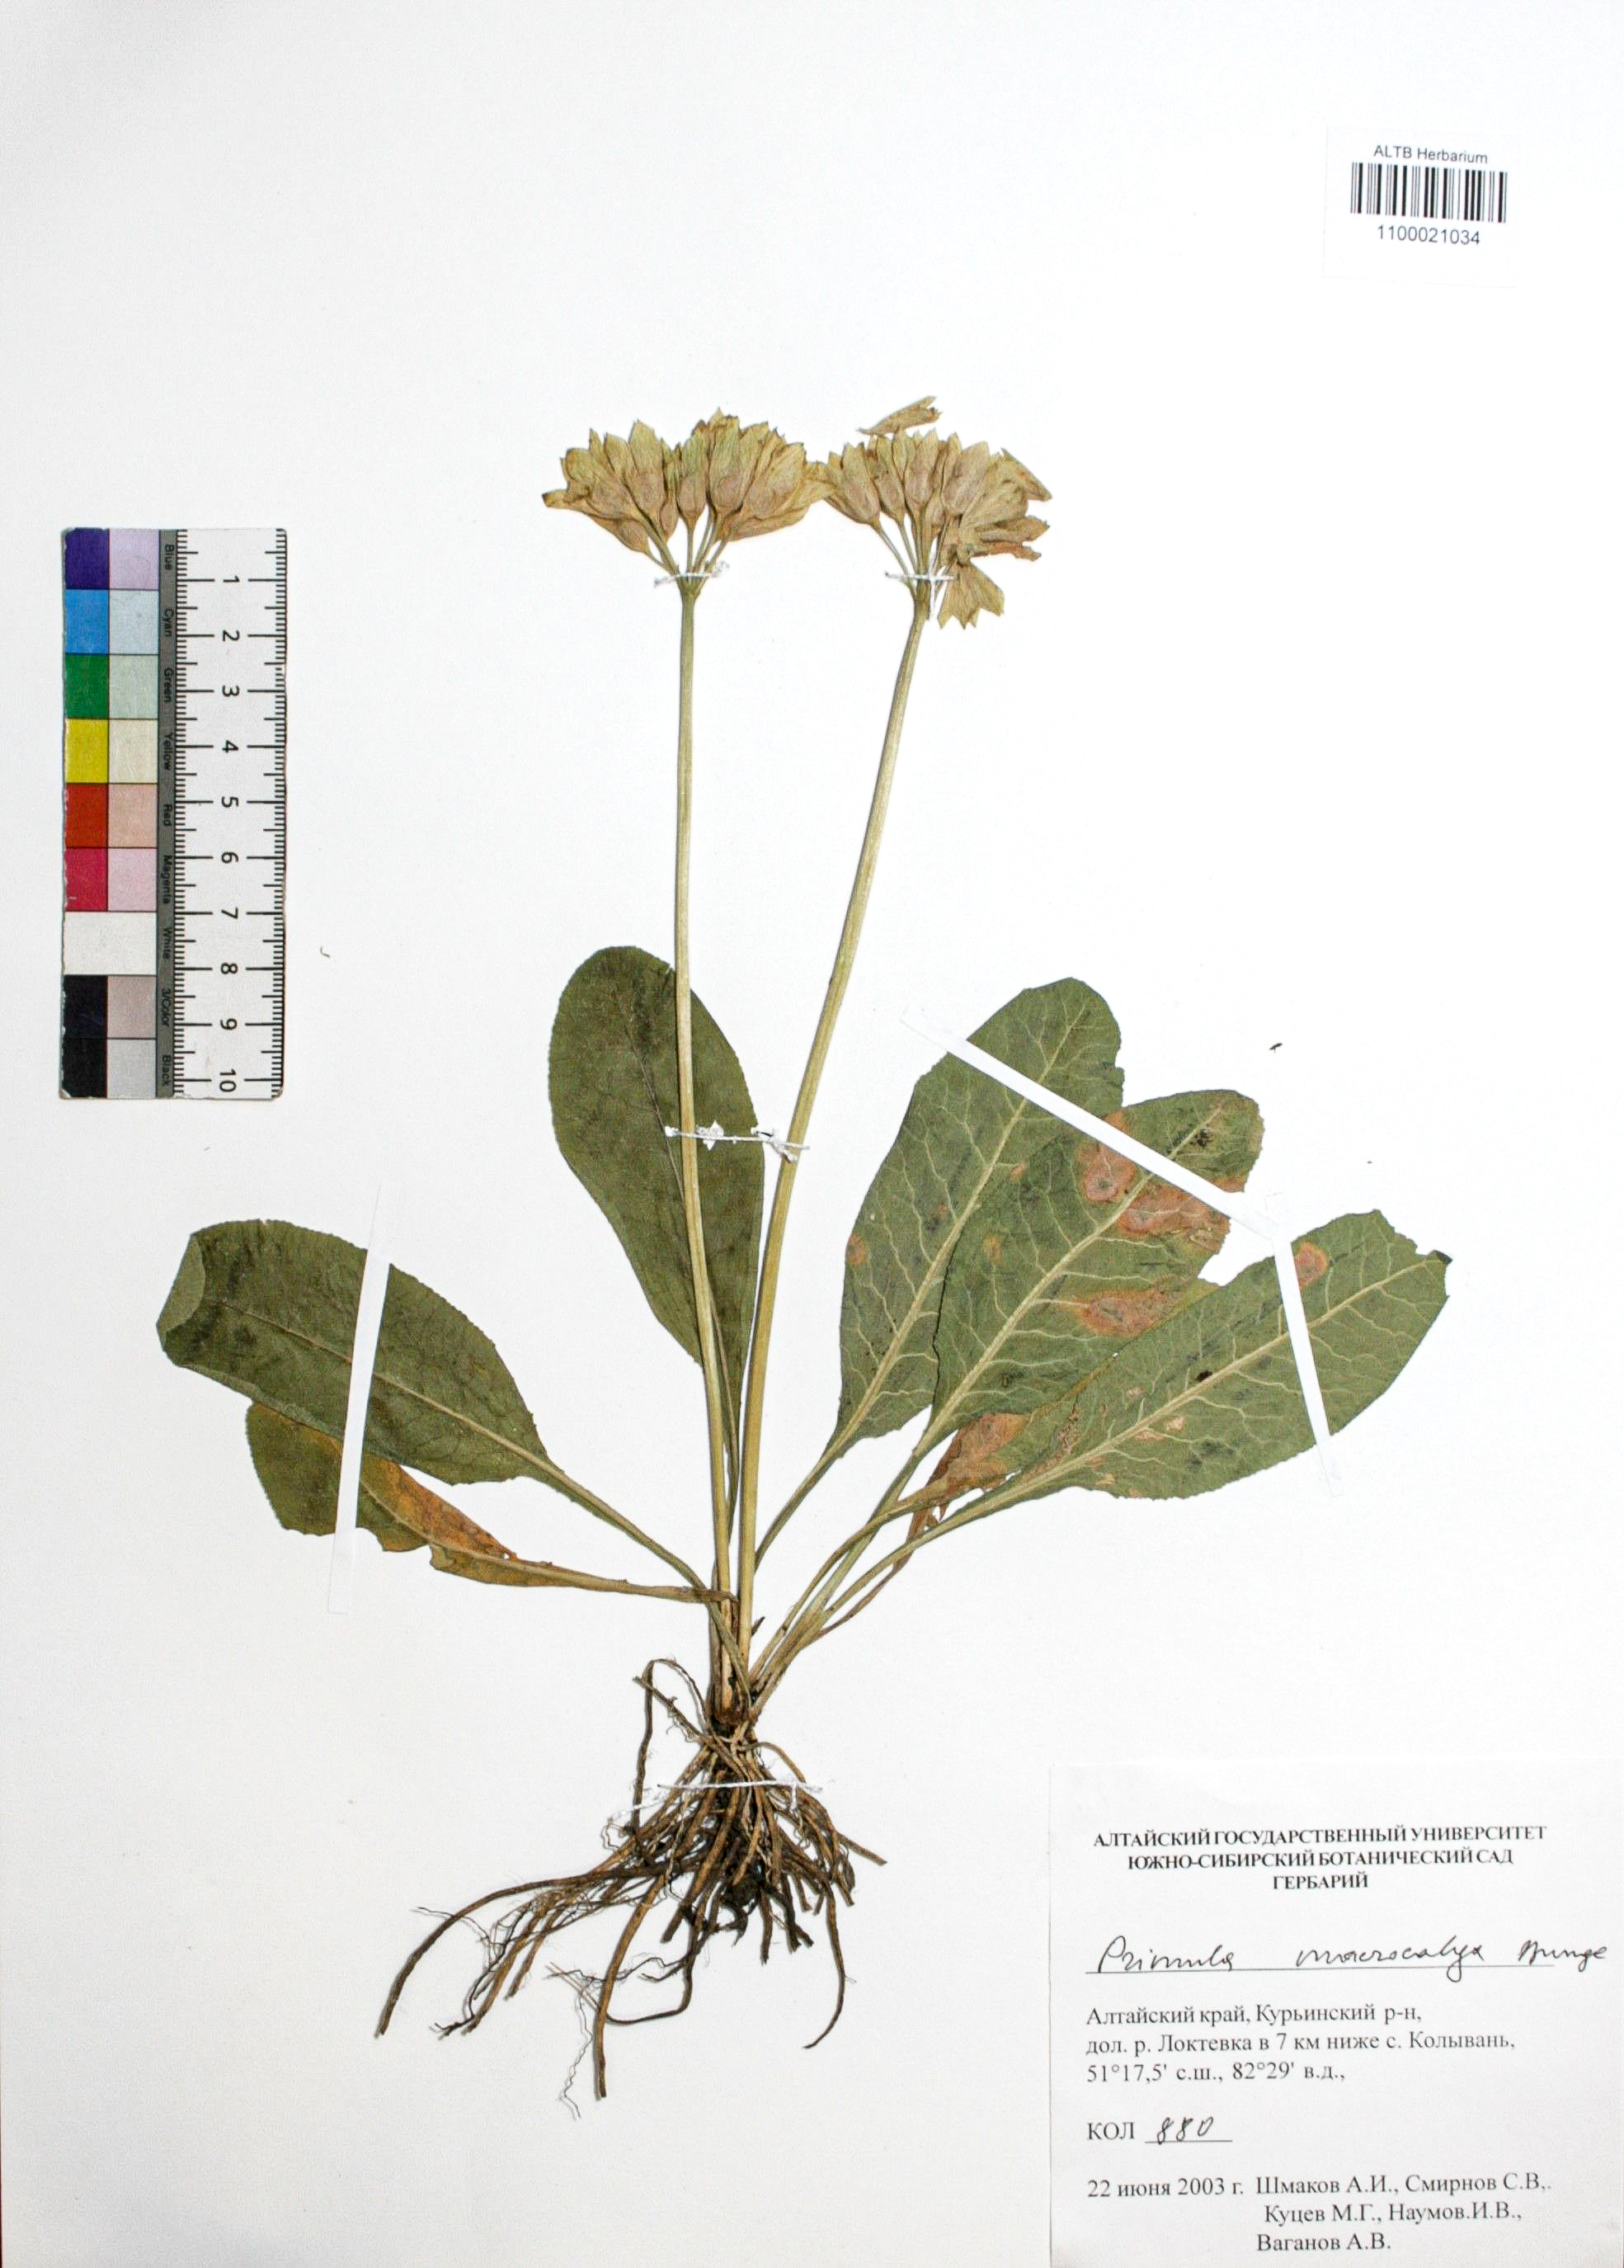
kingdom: Plantae
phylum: Tracheophyta
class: Magnoliopsida
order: Ericales
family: Primulaceae
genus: Primula
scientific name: Primula veris
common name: Cowslip
